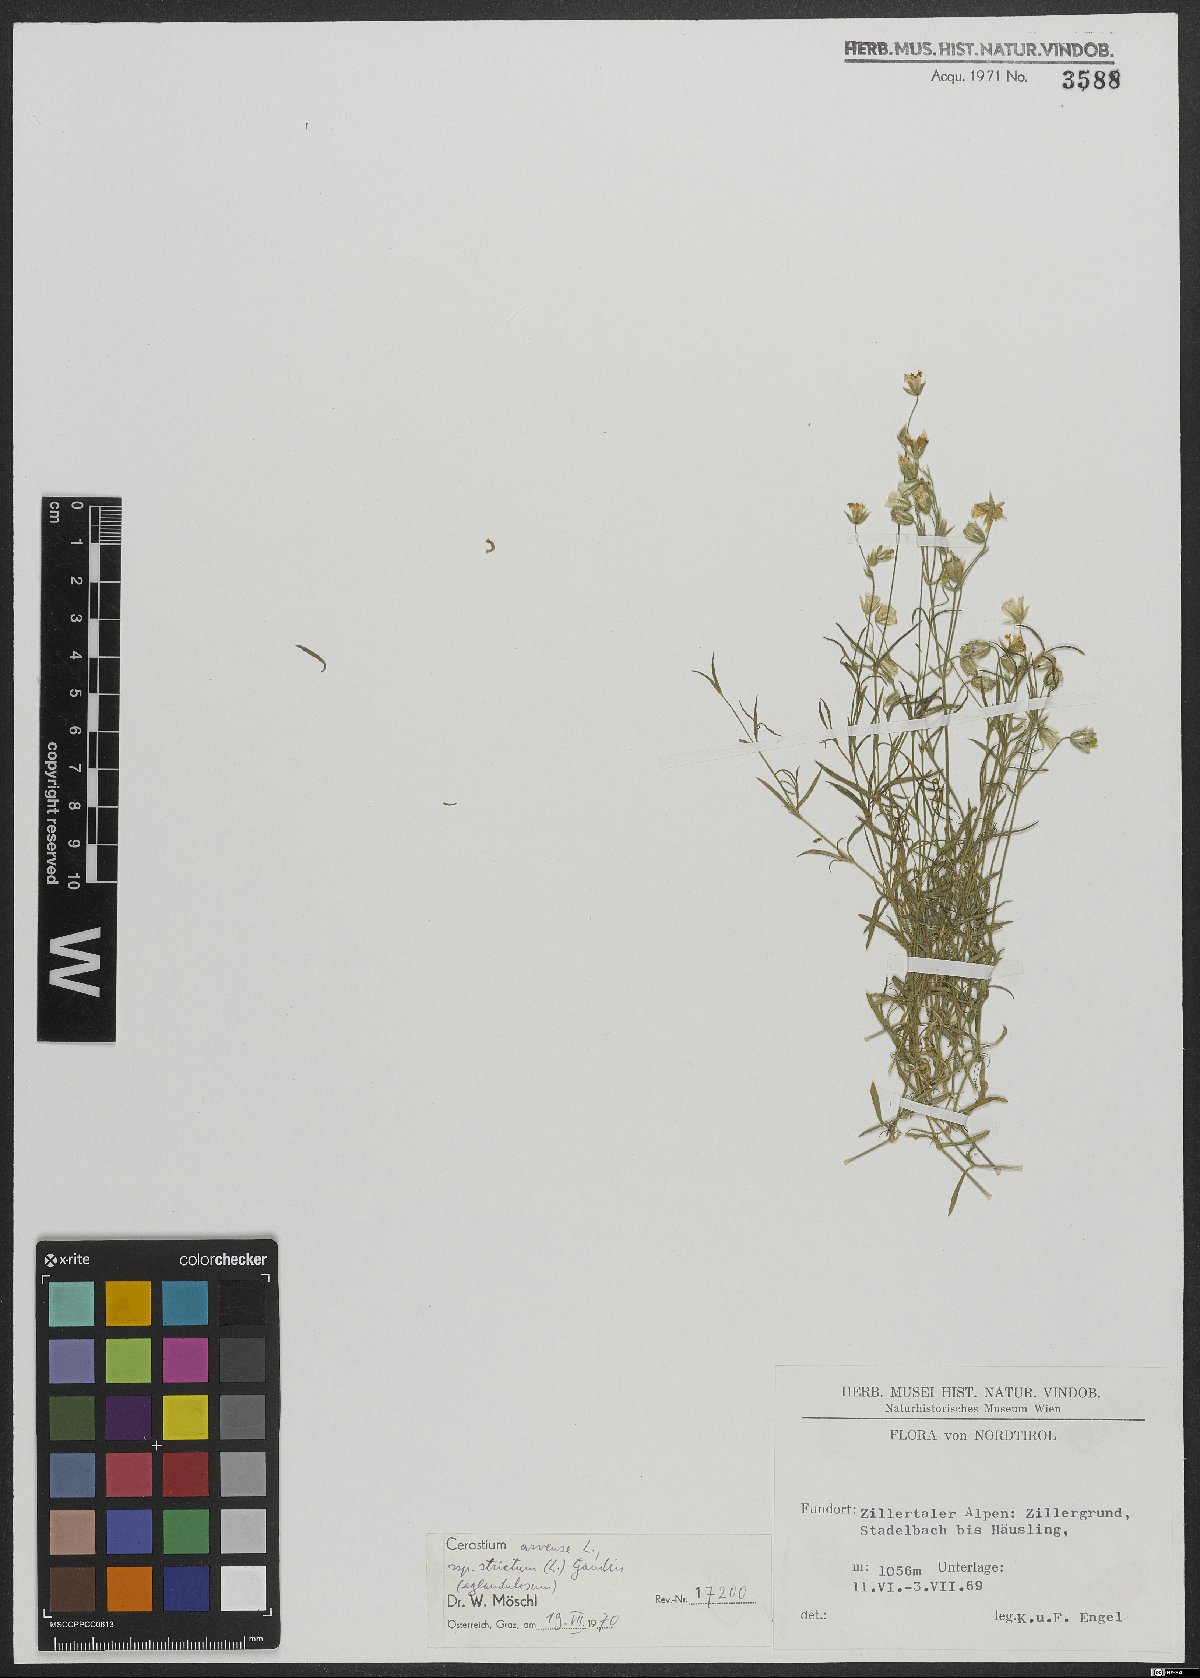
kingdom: Plantae
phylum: Tracheophyta
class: Magnoliopsida
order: Caryophyllales
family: Caryophyllaceae
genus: Cerastium
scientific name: Cerastium elongatum
